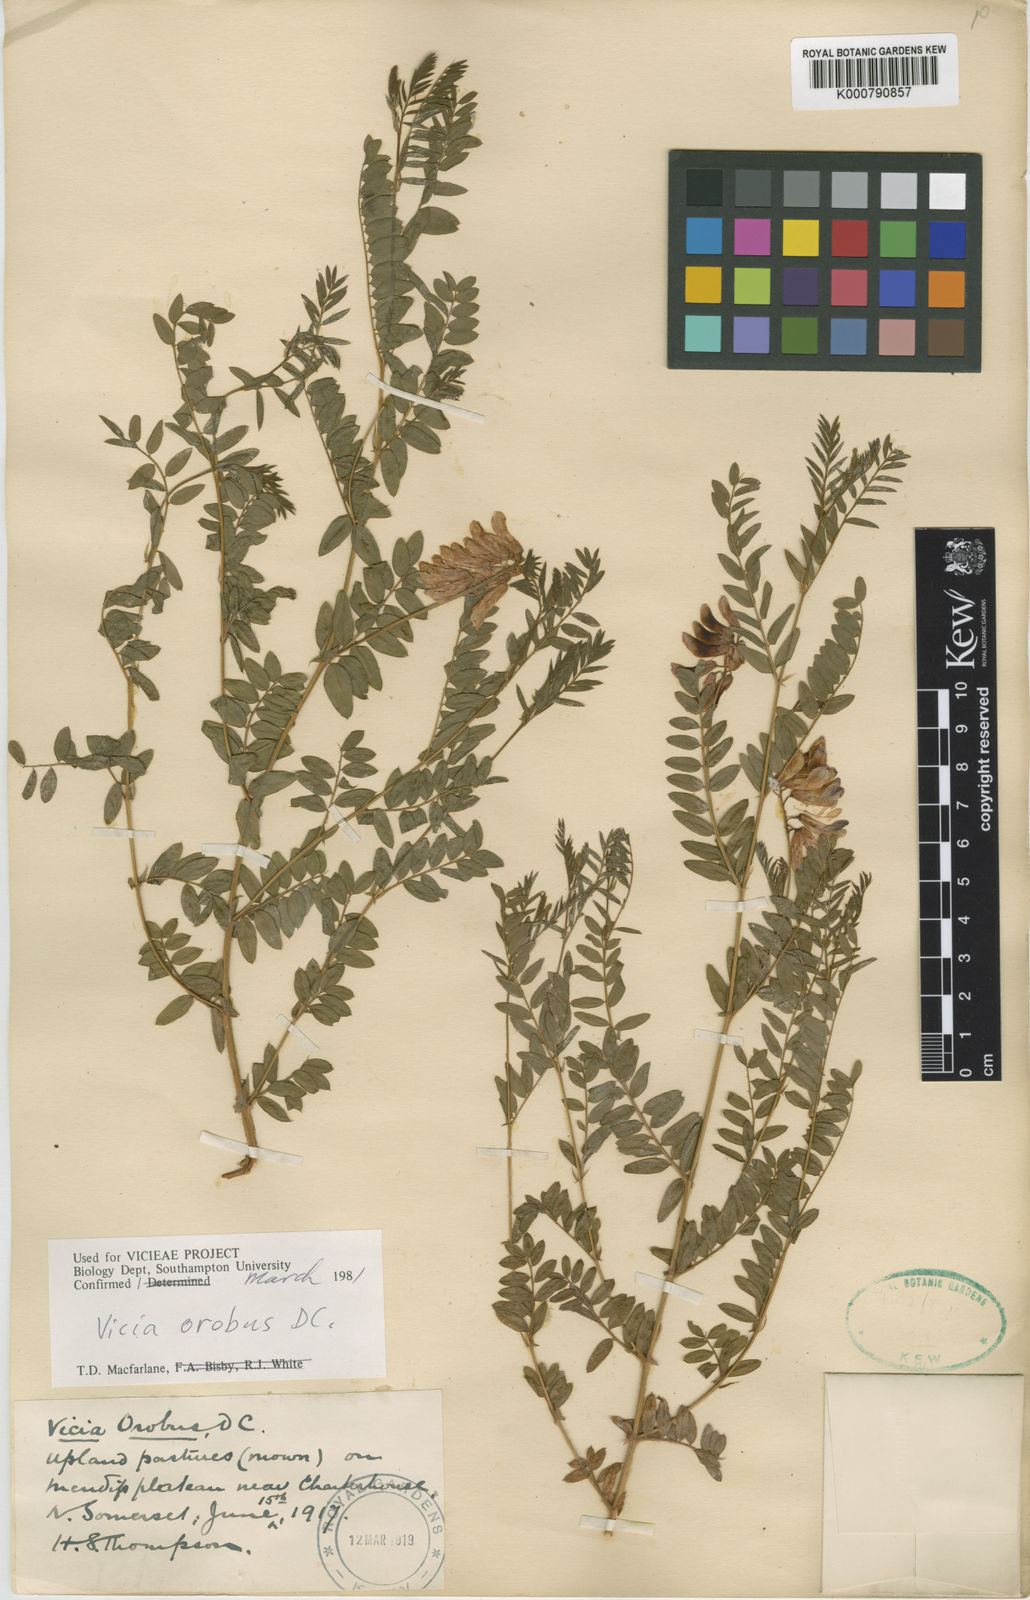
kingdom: Plantae
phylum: Tracheophyta
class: Magnoliopsida
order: Fabales
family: Fabaceae
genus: Vicia
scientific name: Vicia orobus
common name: Wood bitter-vetch
